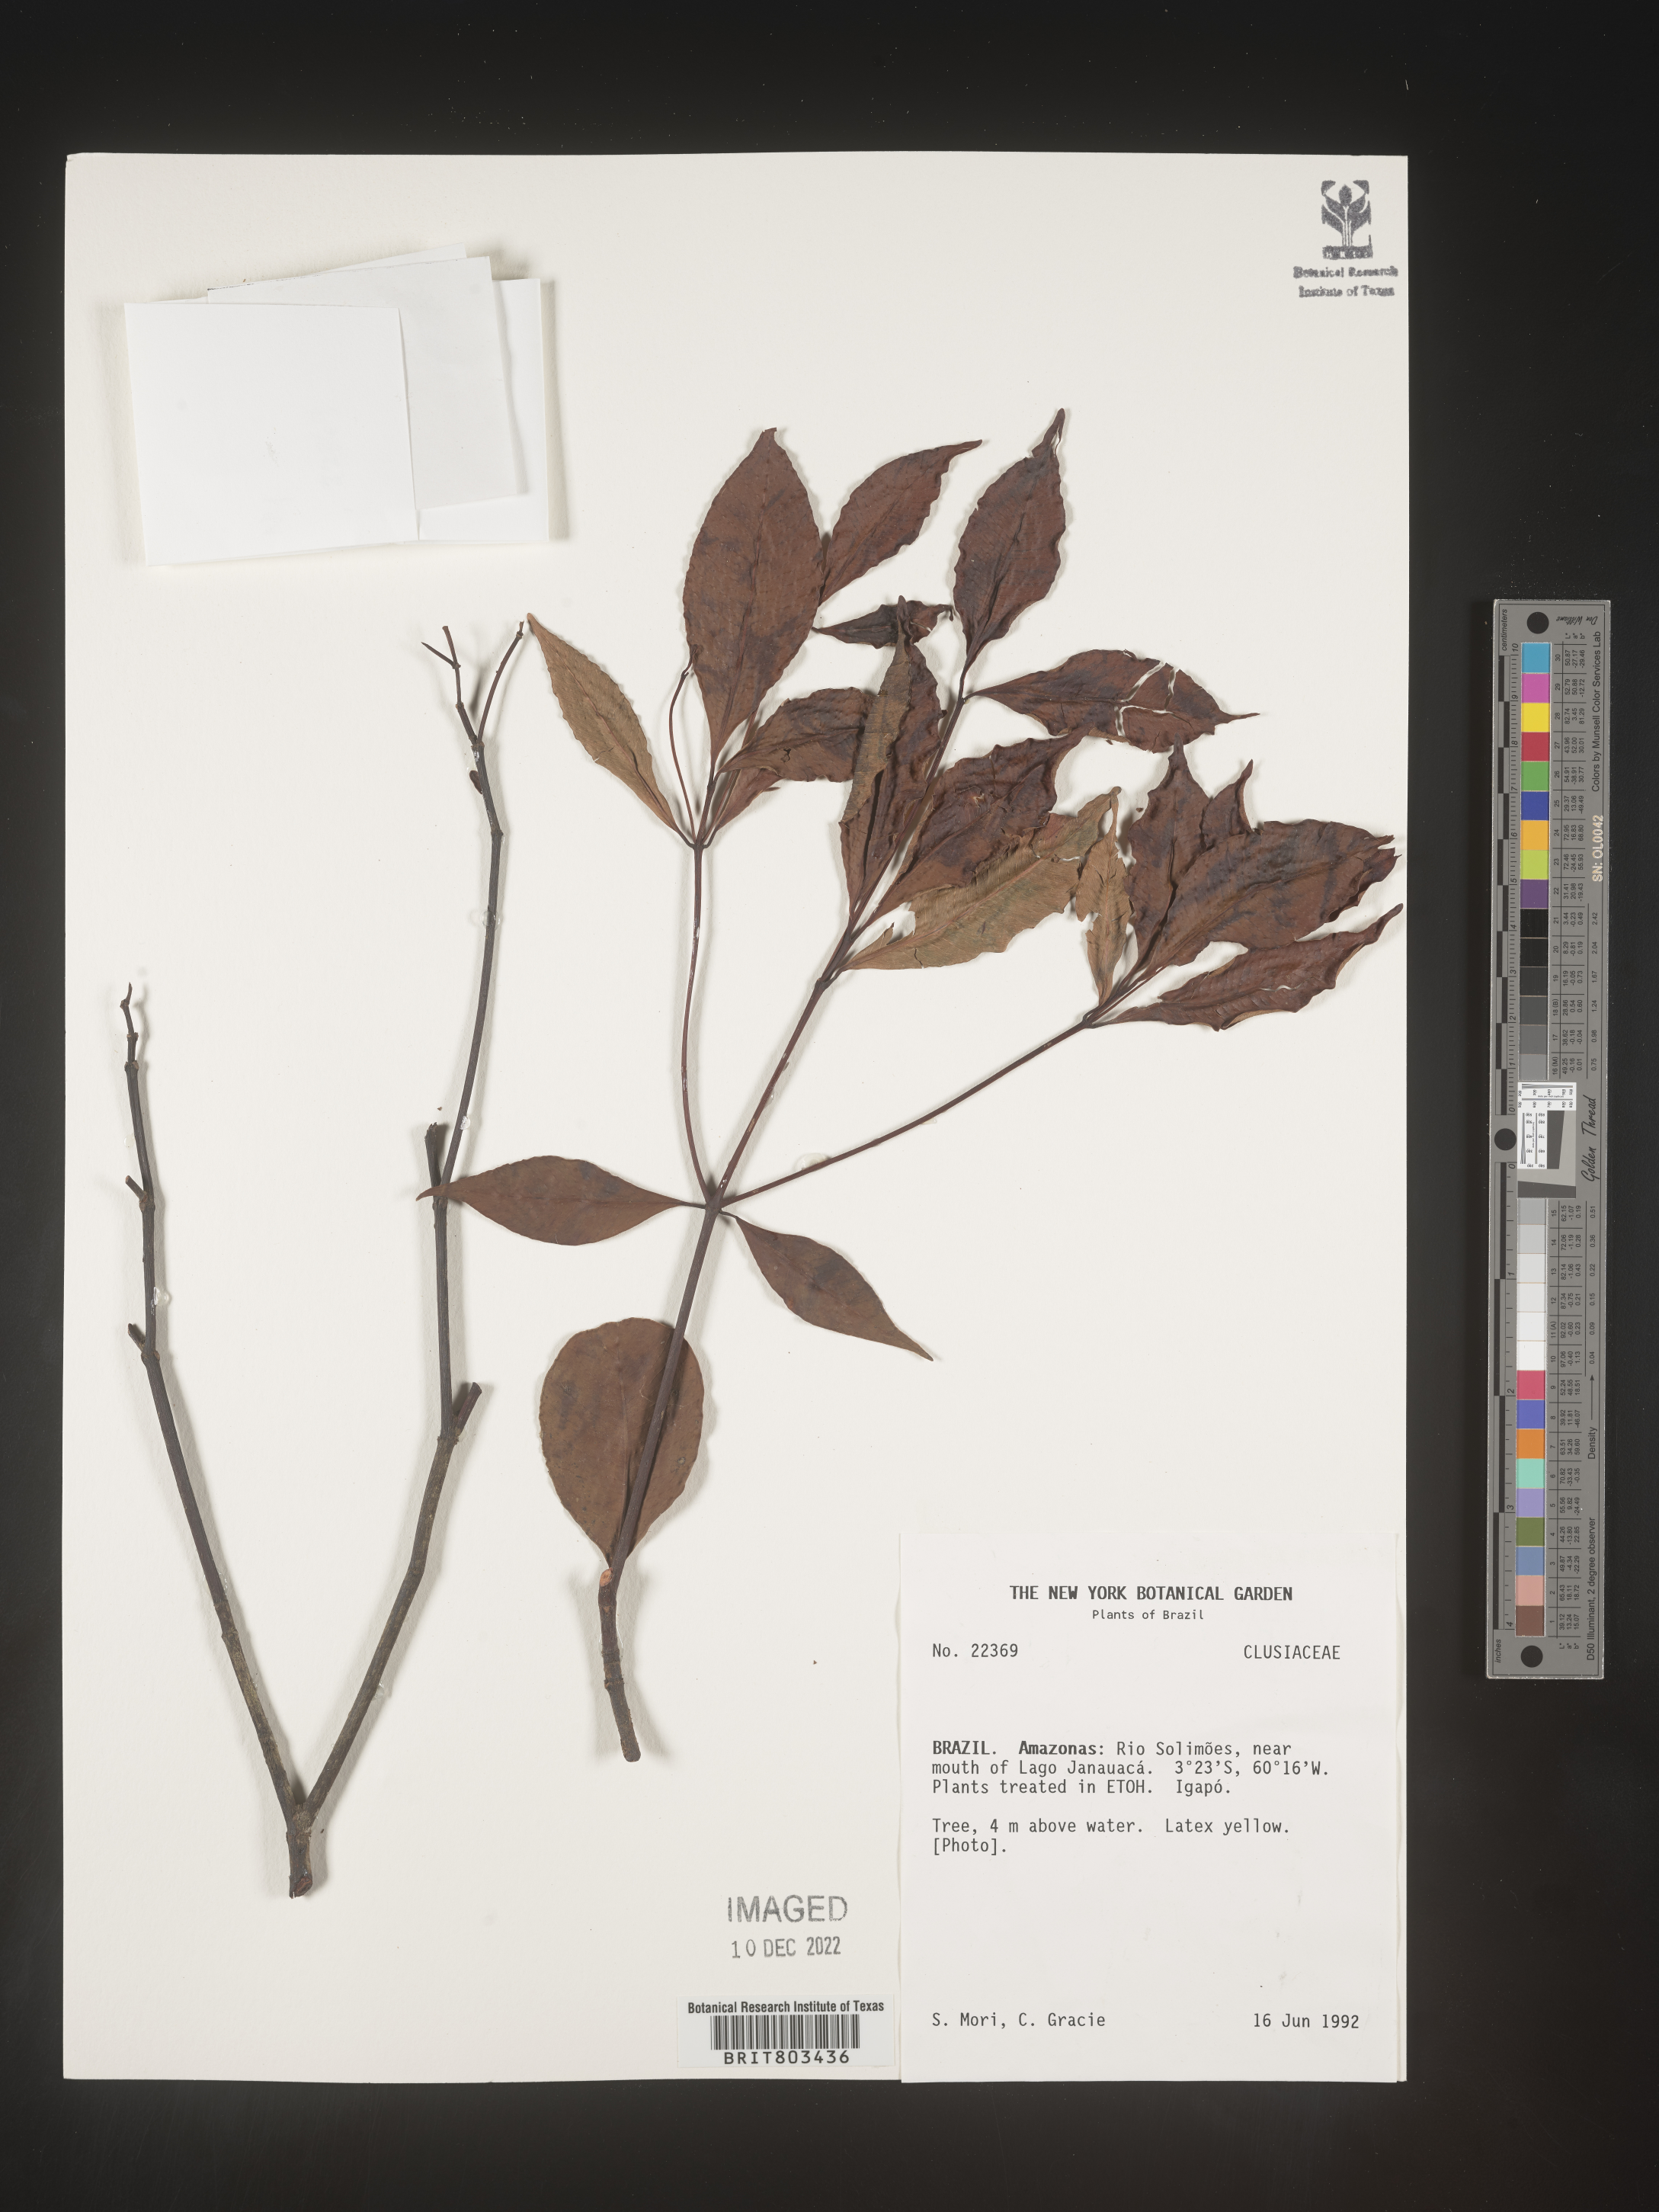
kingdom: Plantae
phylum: Tracheophyta
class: Magnoliopsida
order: Malpighiales
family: Clusiaceae
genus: Tovomita
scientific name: Tovomita
